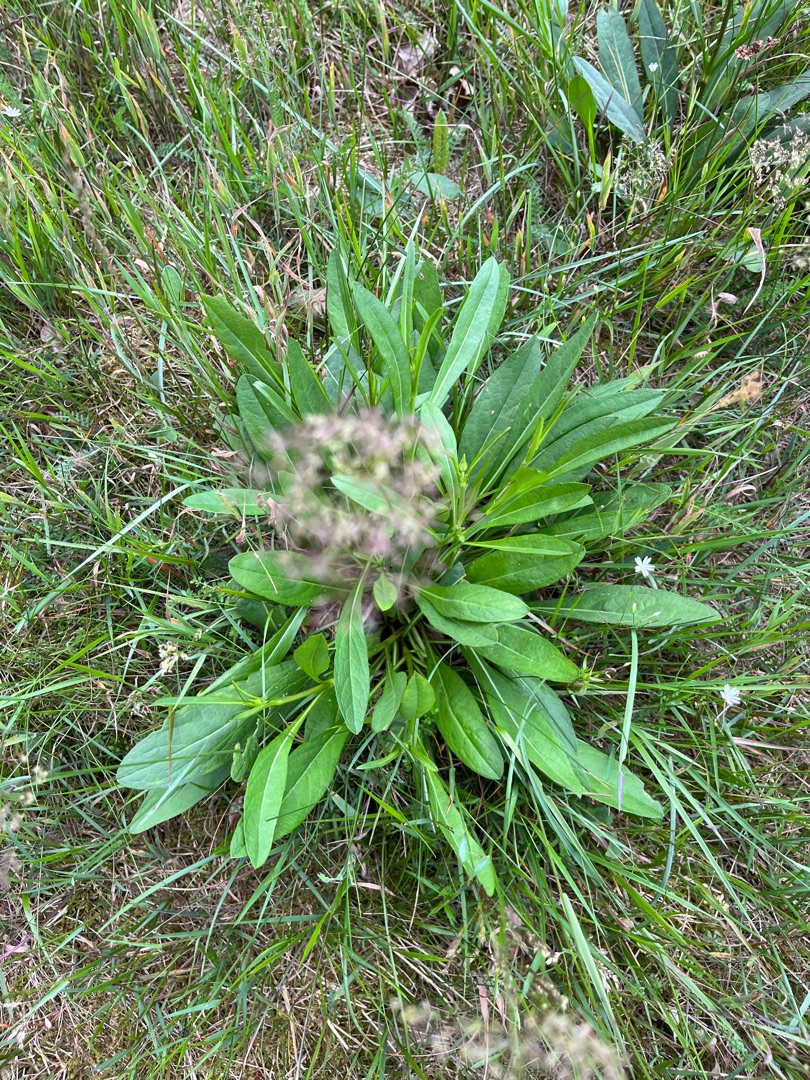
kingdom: Plantae
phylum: Tracheophyta
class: Magnoliopsida
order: Dipsacales
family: Caprifoliaceae
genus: Succisa
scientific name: Succisa pratensis
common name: Djævelsbid
